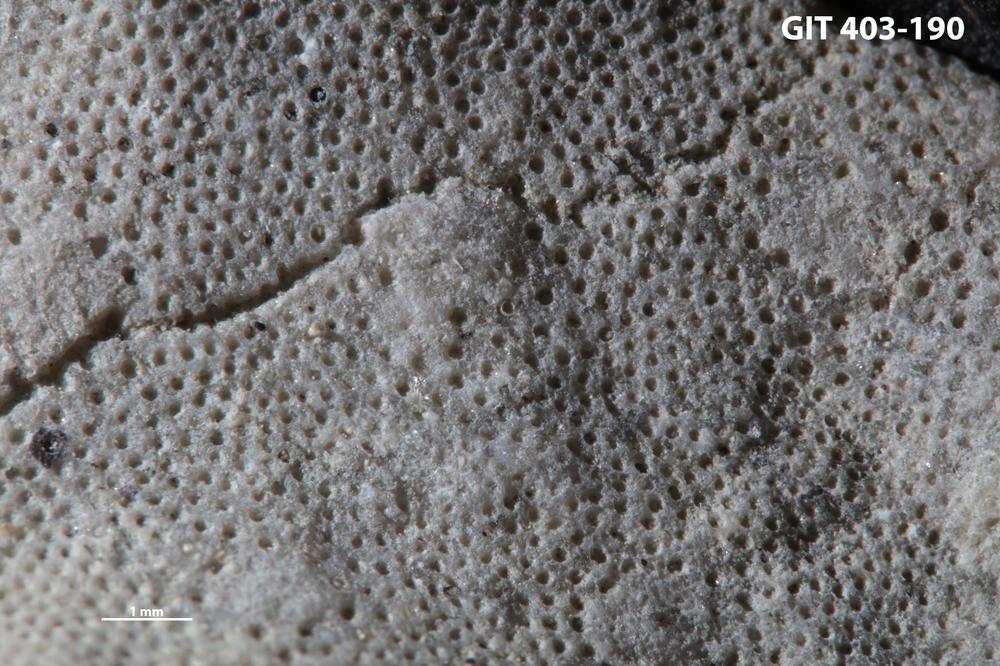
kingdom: Animalia
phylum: Bryozoa
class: Stenolaemata
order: Cystoporida
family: Fistuliporidae
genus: Fistulipora
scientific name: Fistulipora przhidolensis
